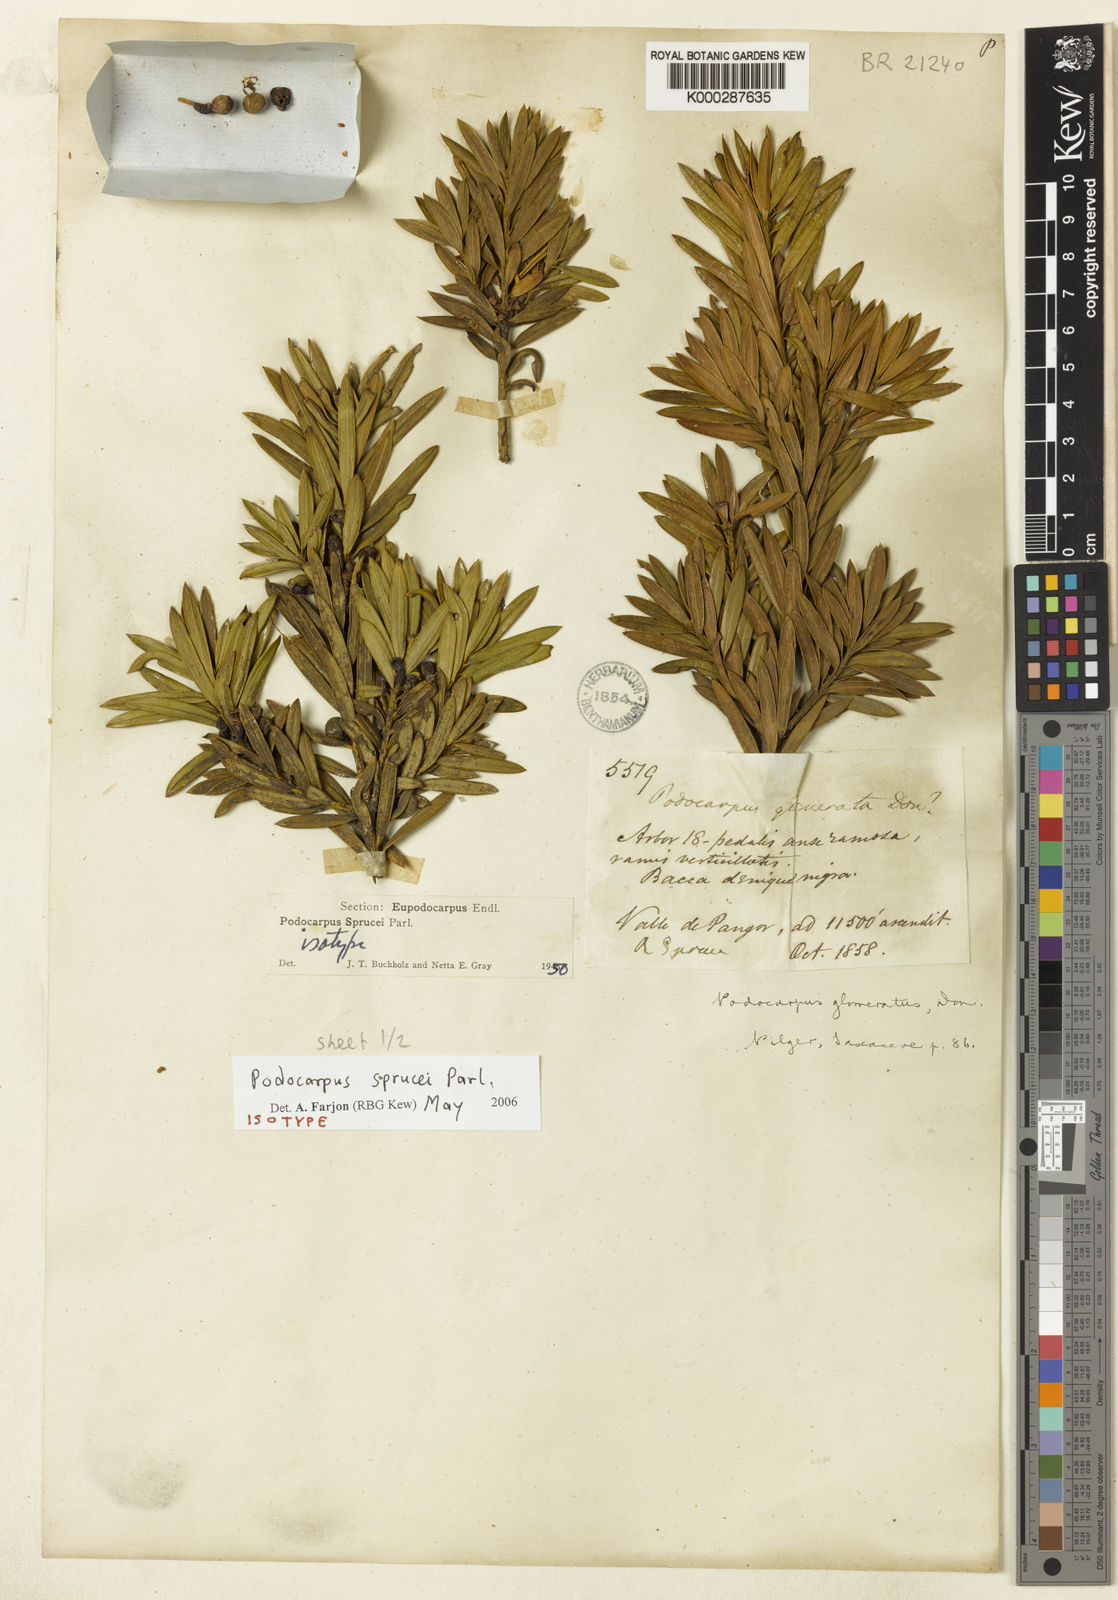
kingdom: Plantae
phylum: Tracheophyta
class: Pinopsida
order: Pinales
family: Podocarpaceae
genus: Podocarpus
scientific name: Podocarpus sprucei
